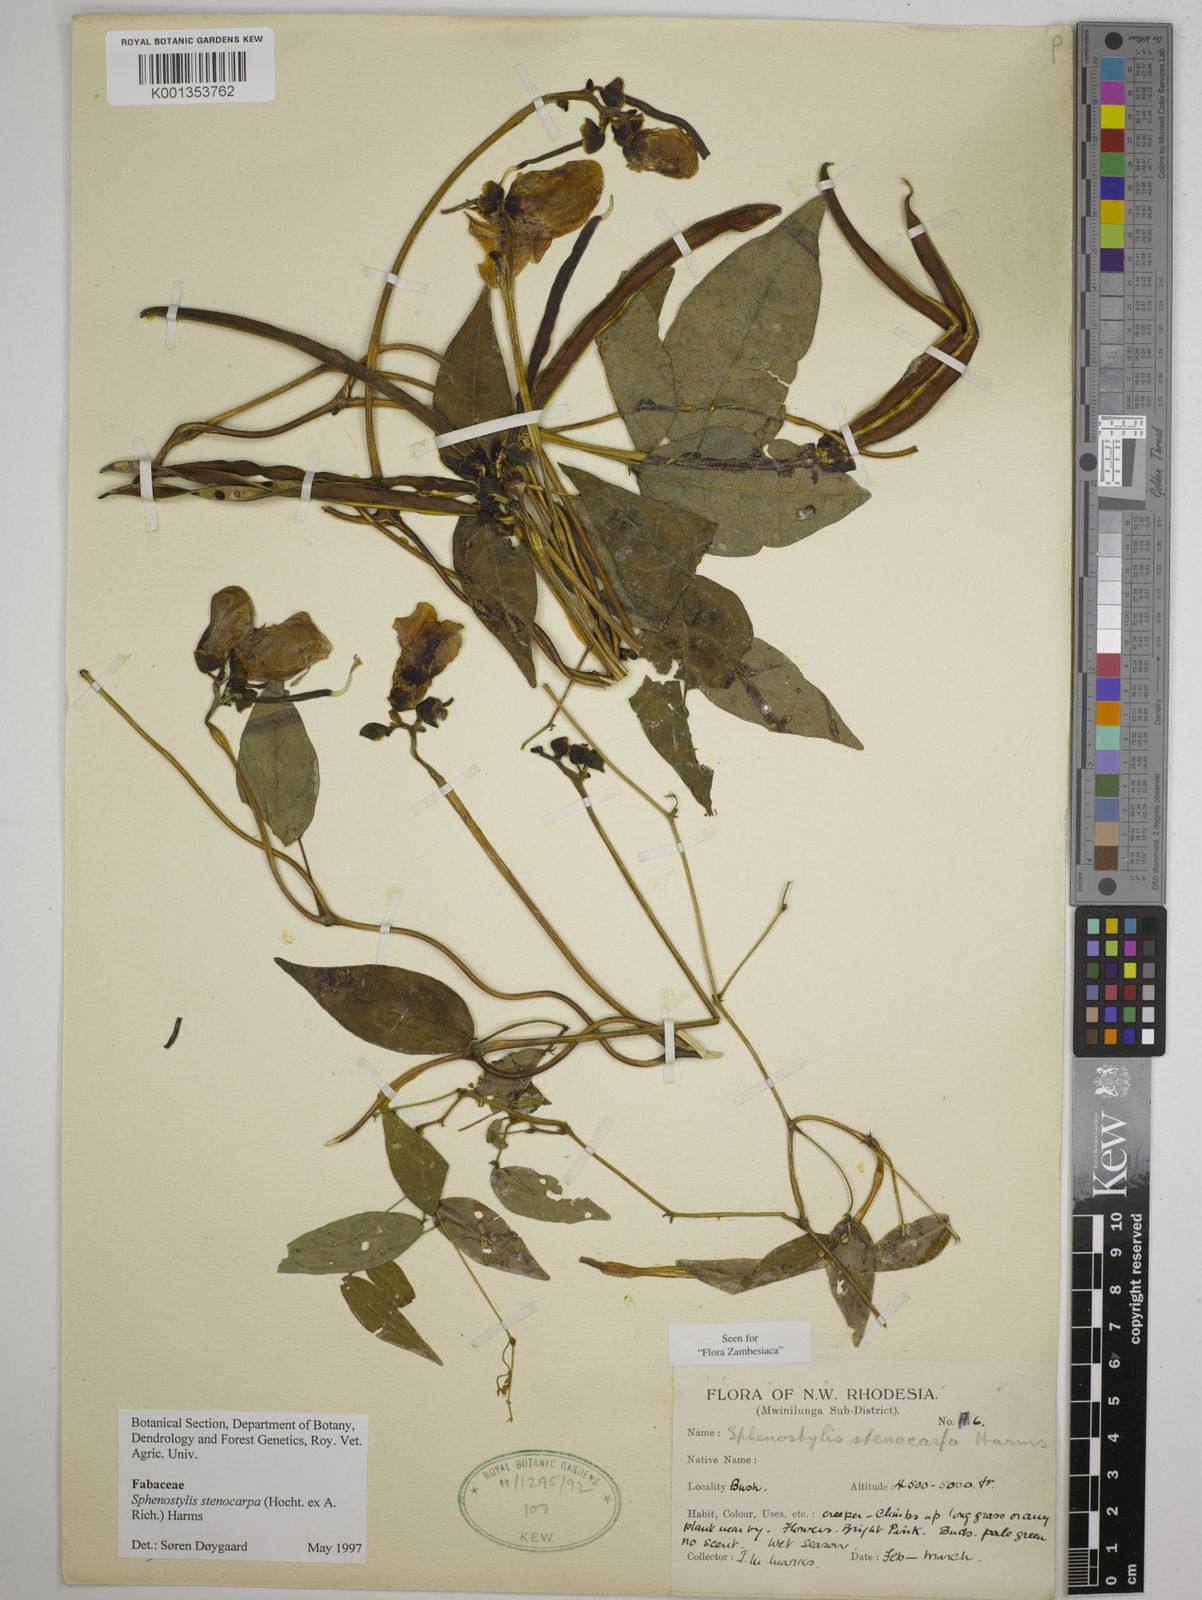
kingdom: Plantae
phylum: Tracheophyta
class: Magnoliopsida
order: Fabales
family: Fabaceae
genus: Sphenostylis
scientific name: Sphenostylis stenocarpa
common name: Yam-pea
